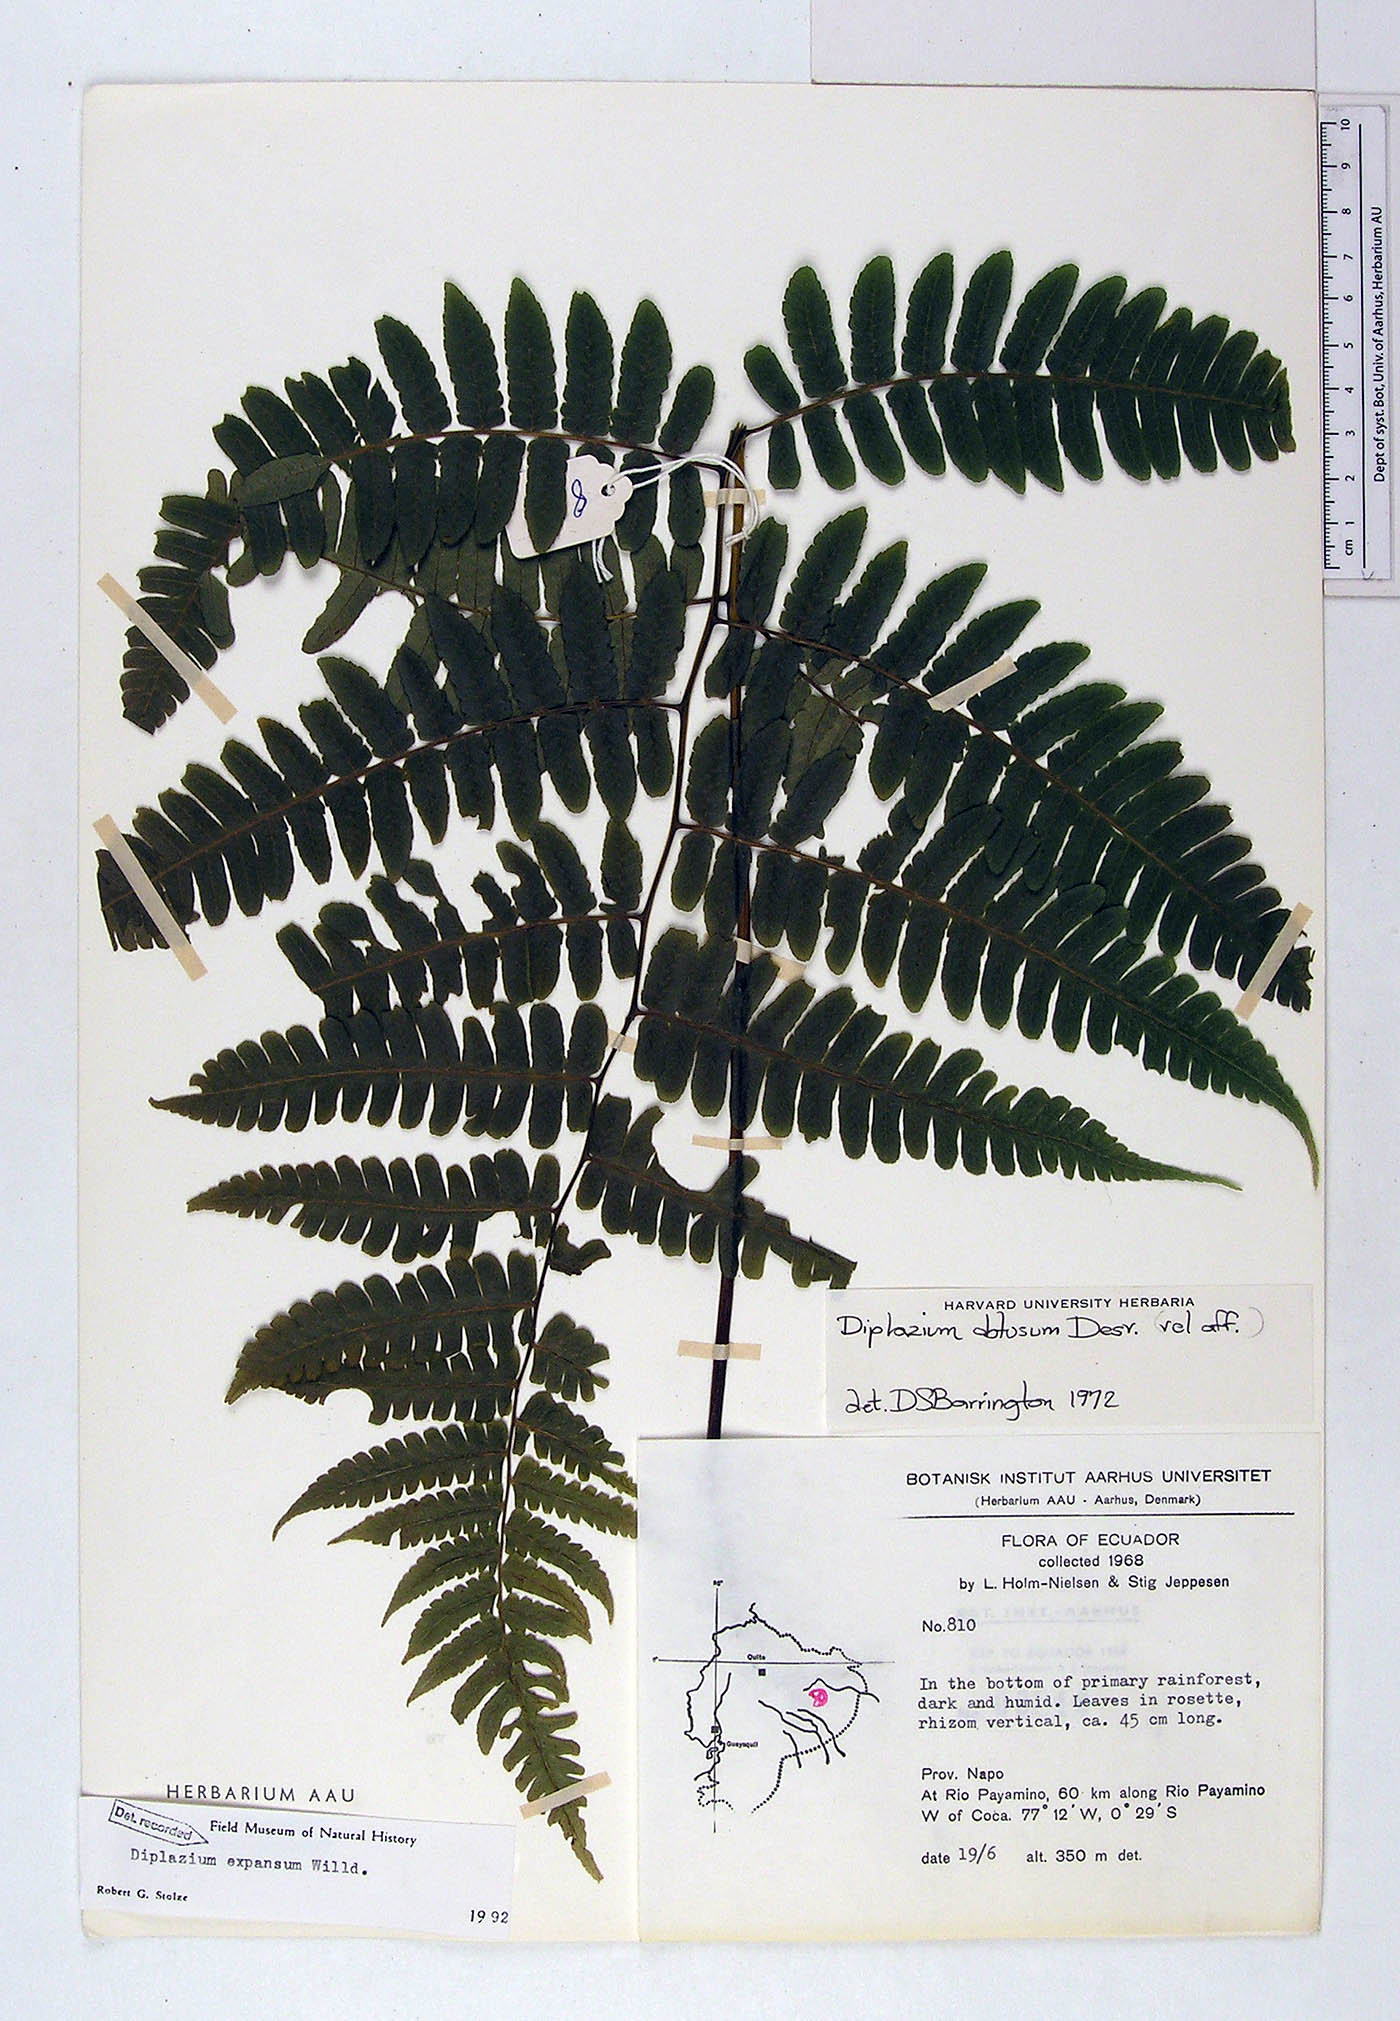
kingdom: Plantae
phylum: Tracheophyta
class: Polypodiopsida
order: Polypodiales
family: Athyriaceae
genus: Diplazium
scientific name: Diplazium expansum
